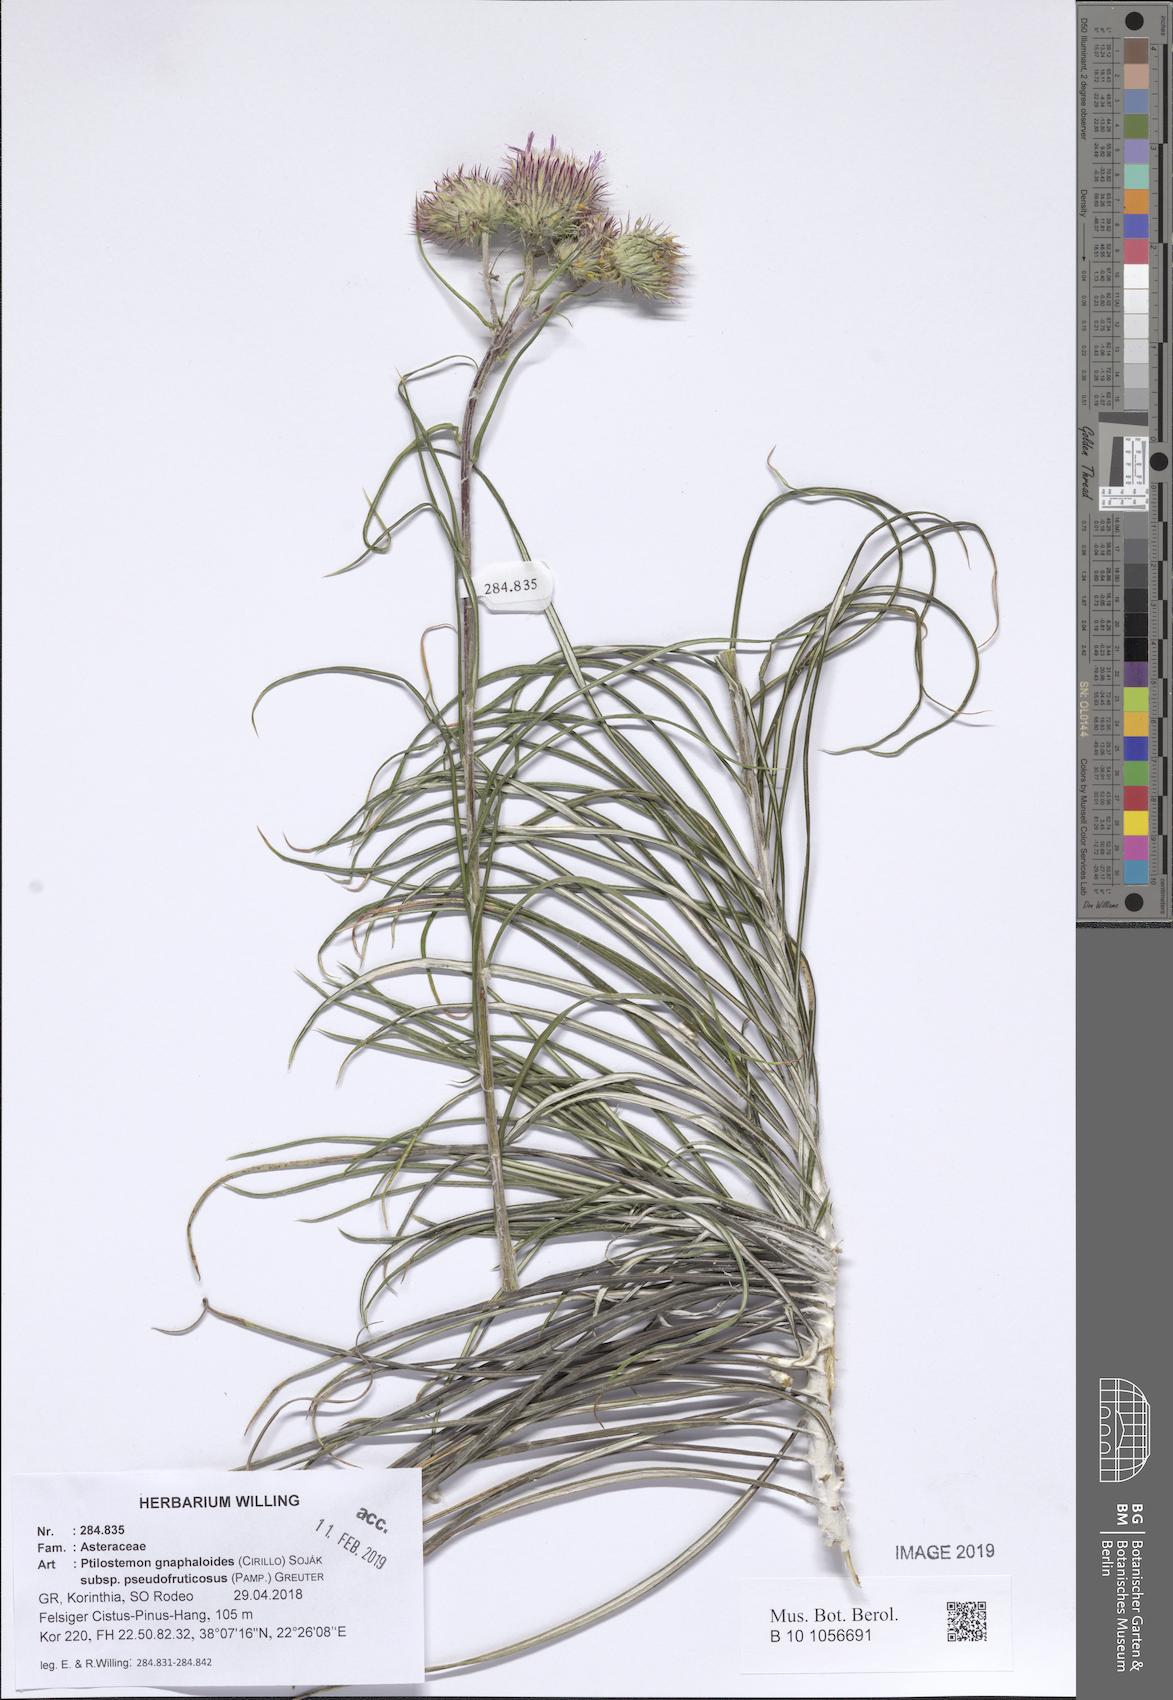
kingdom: Plantae
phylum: Tracheophyta
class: Magnoliopsida
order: Asterales
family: Asteraceae
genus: Ptilostemon
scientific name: Ptilostemon gnaphaloides
